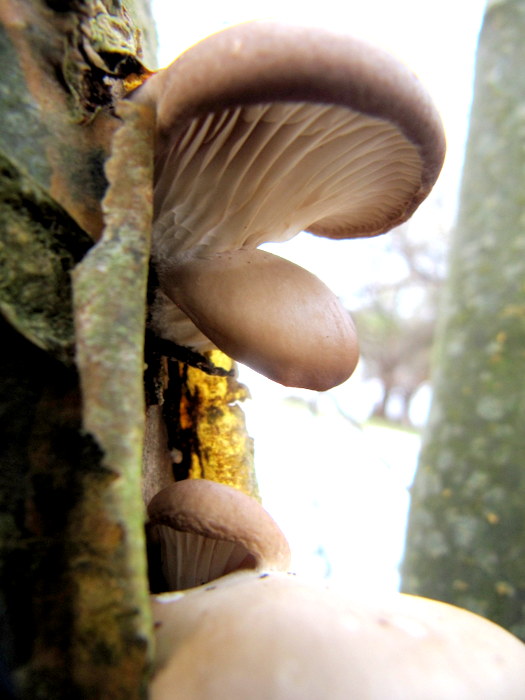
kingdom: Fungi
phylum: Basidiomycota
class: Agaricomycetes
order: Agaricales
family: Pleurotaceae
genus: Pleurotus
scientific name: Pleurotus ostreatus
